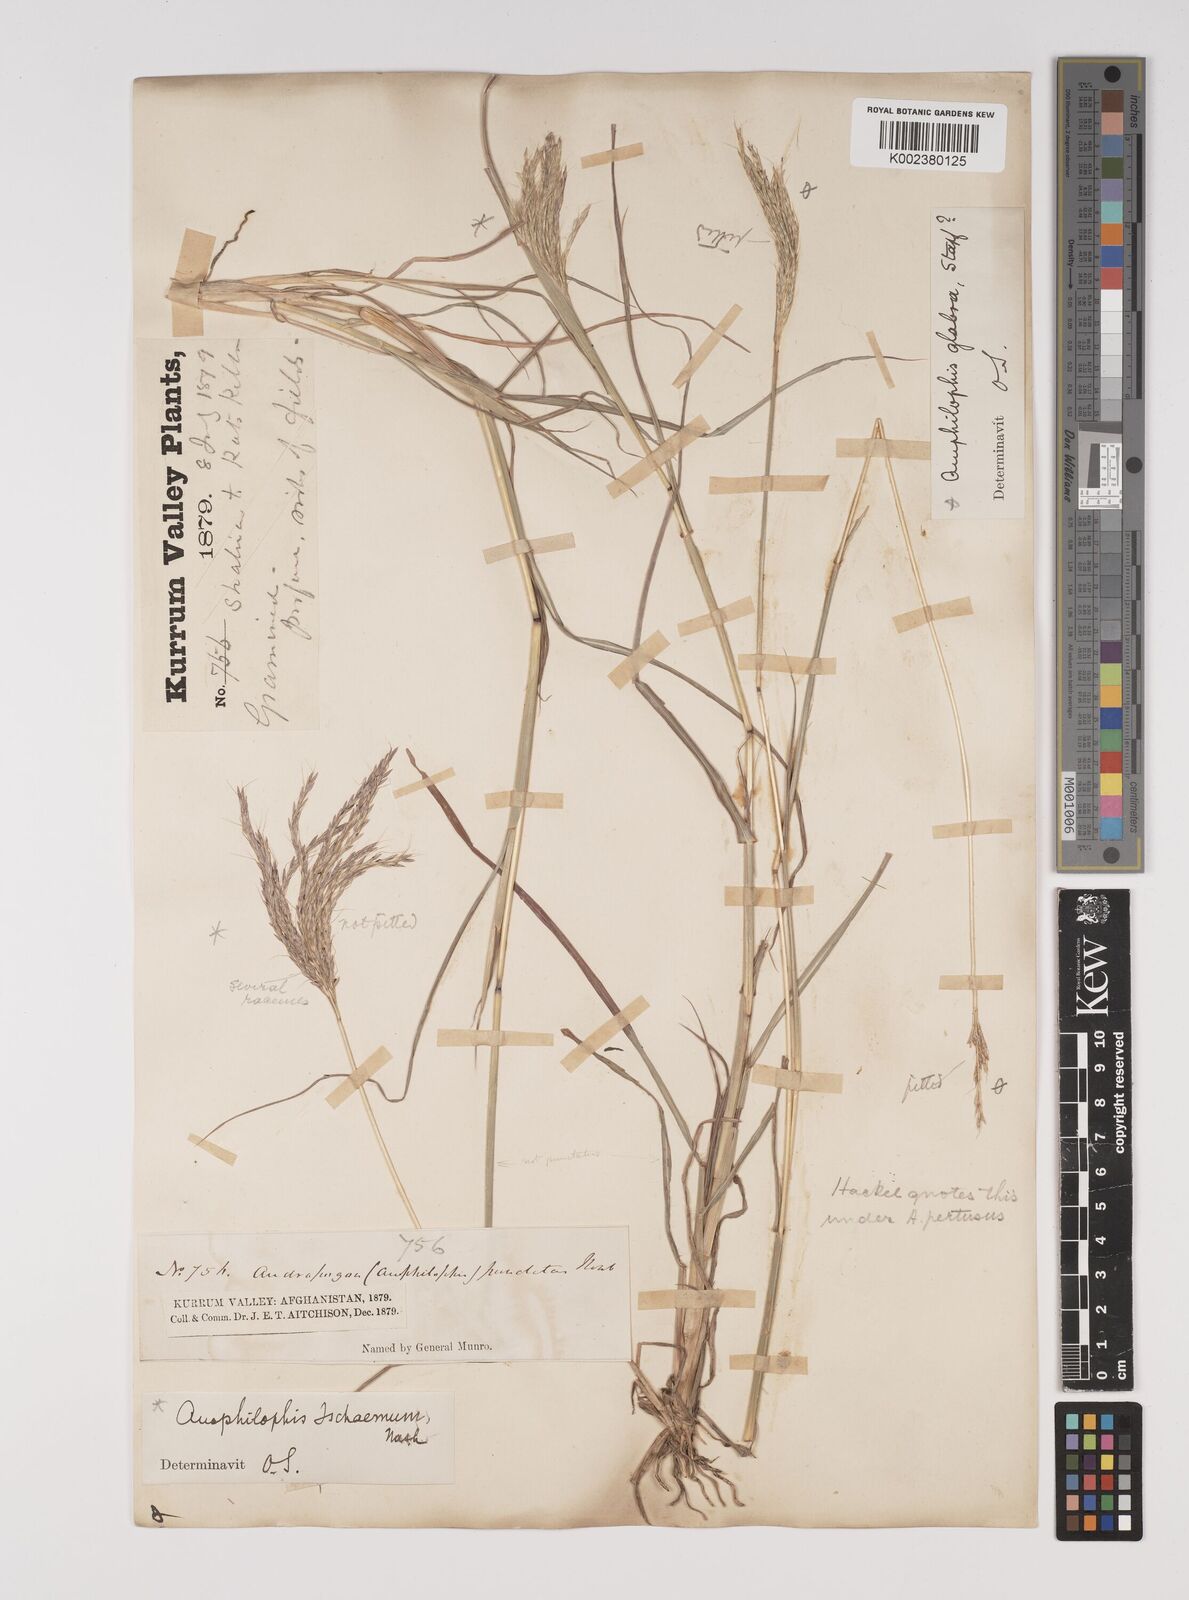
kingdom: Plantae
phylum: Tracheophyta
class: Liliopsida
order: Poales
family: Poaceae
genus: Bothriochloa
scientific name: Bothriochloa ischaemum
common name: Yellow bluestem
